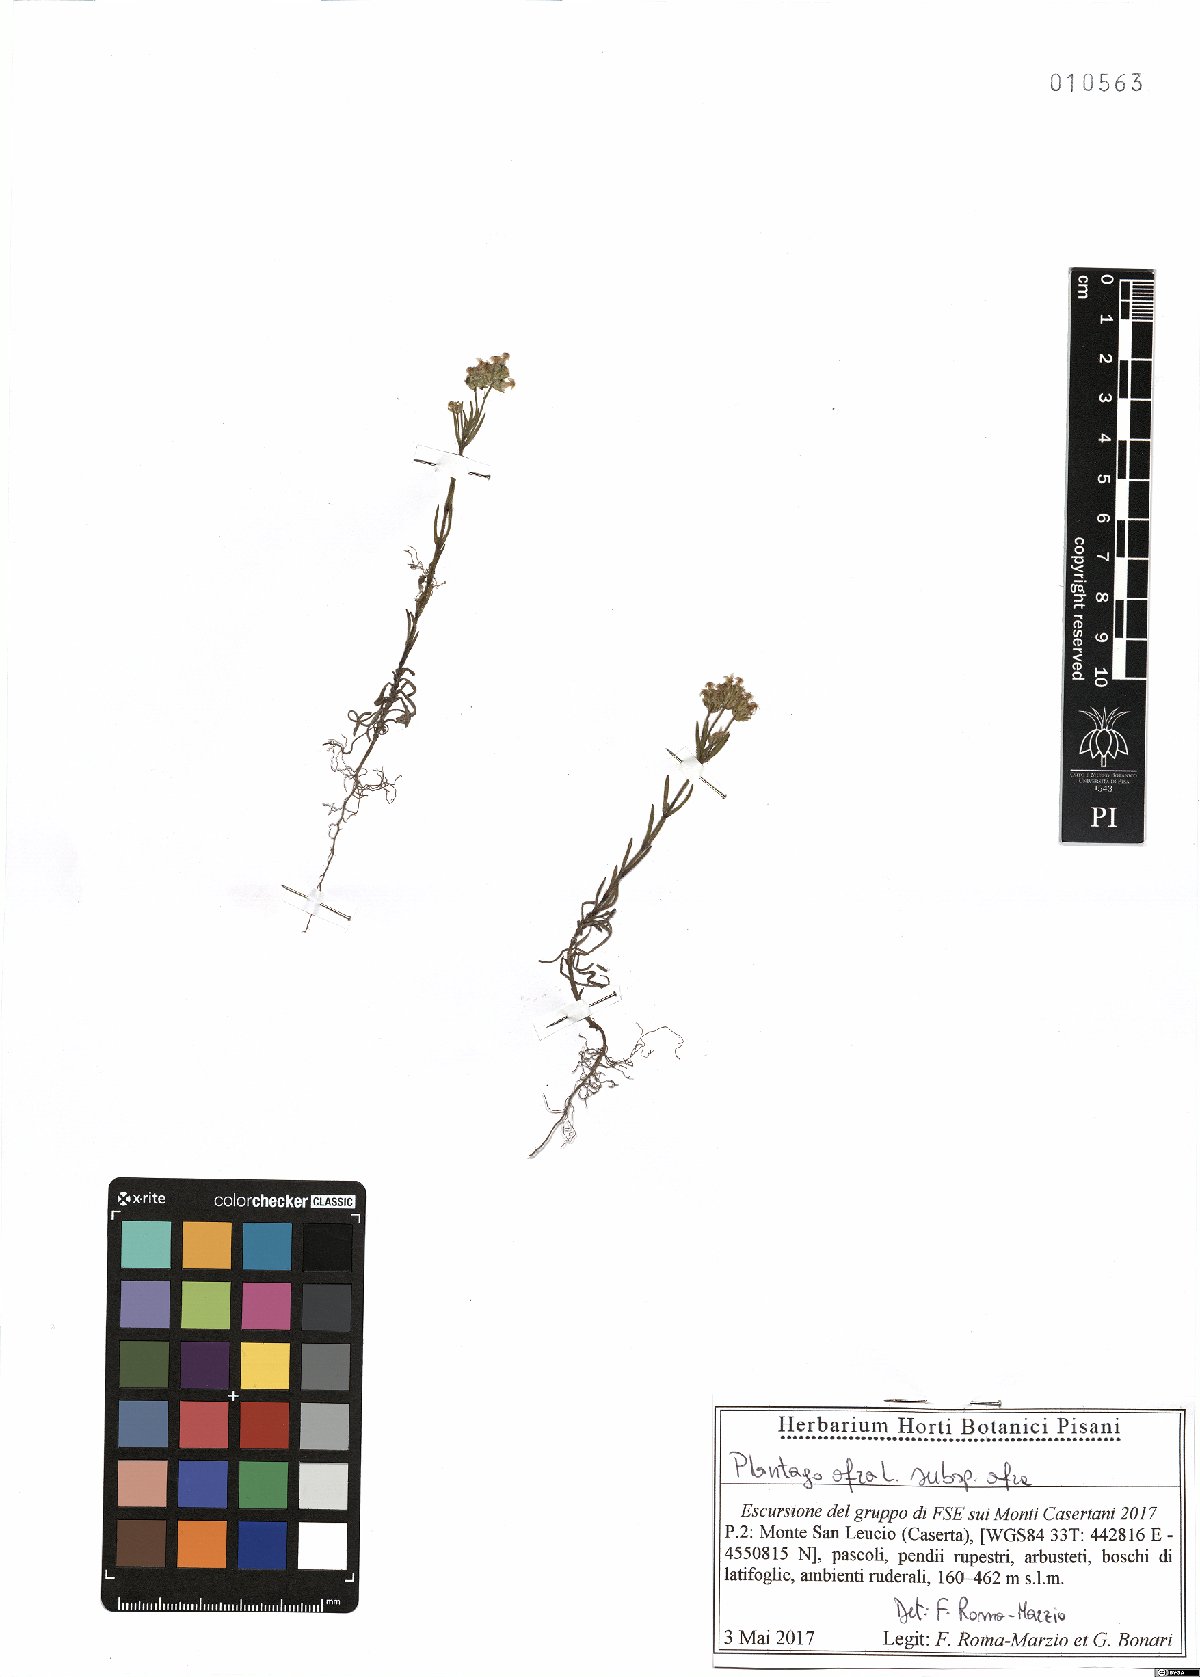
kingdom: Plantae
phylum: Tracheophyta
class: Magnoliopsida
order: Lamiales
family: Plantaginaceae
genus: Plantago
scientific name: Plantago afra
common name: Glandular plantain
